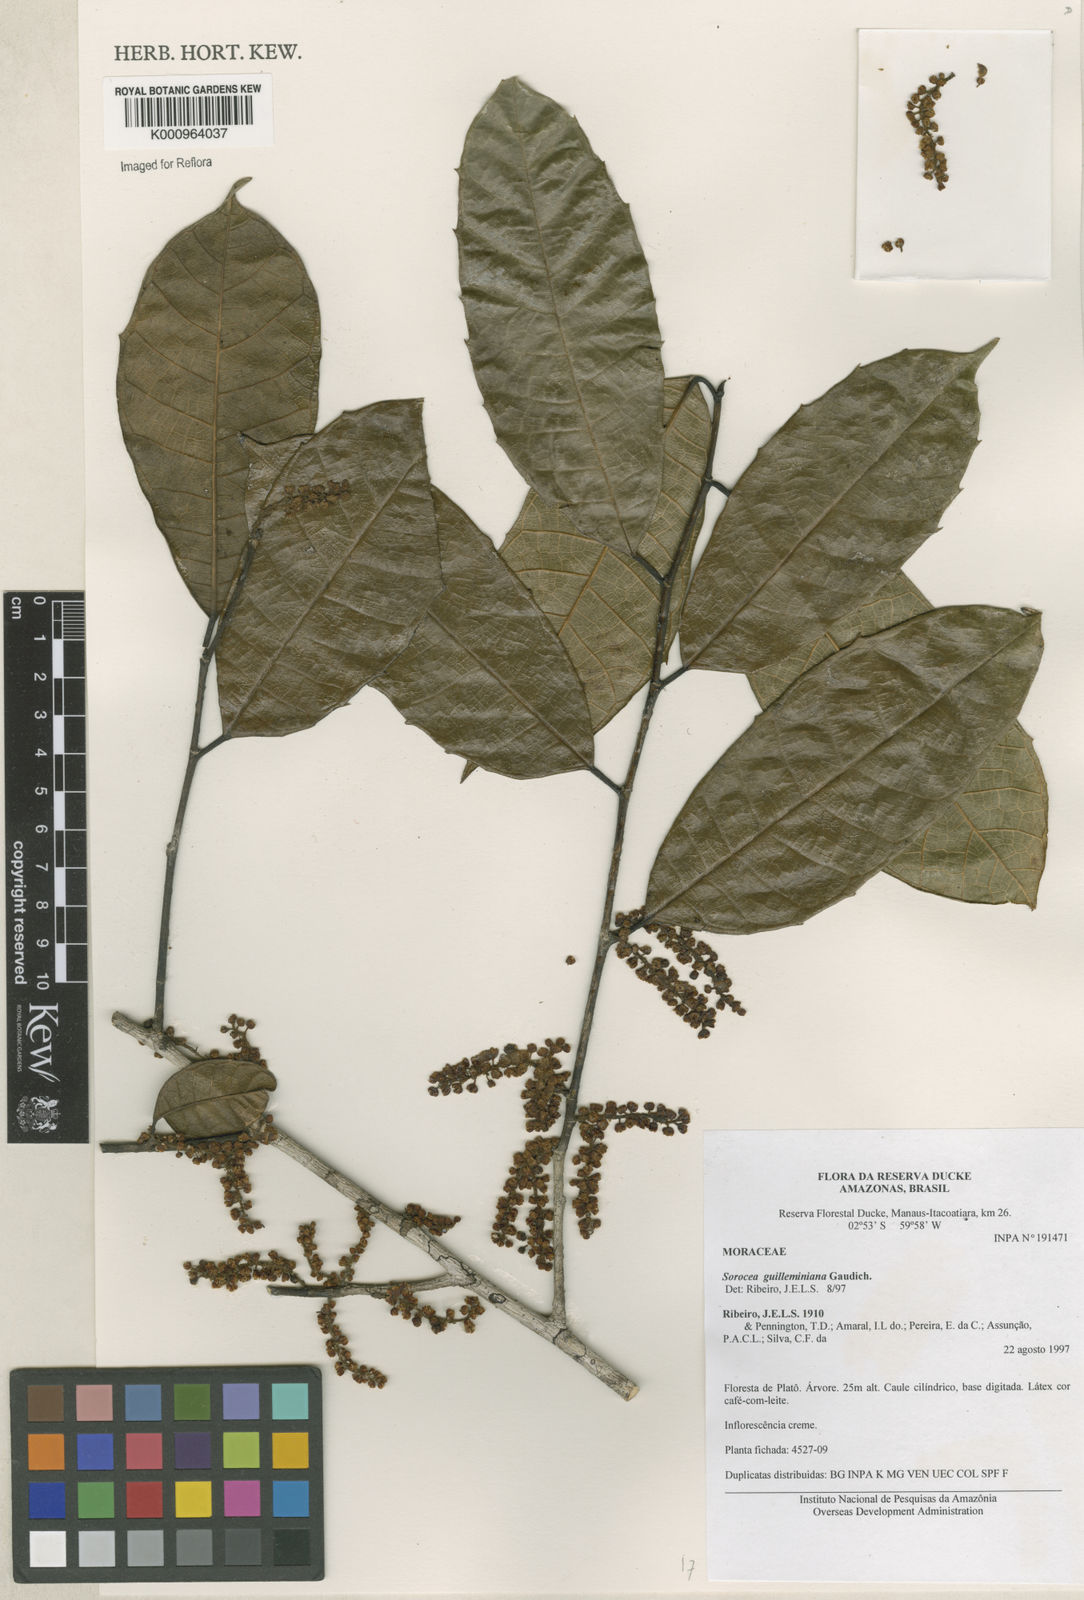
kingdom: Plantae
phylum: Tracheophyta
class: Magnoliopsida
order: Rosales
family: Moraceae
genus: Sorocea
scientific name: Sorocea guilleminiana
